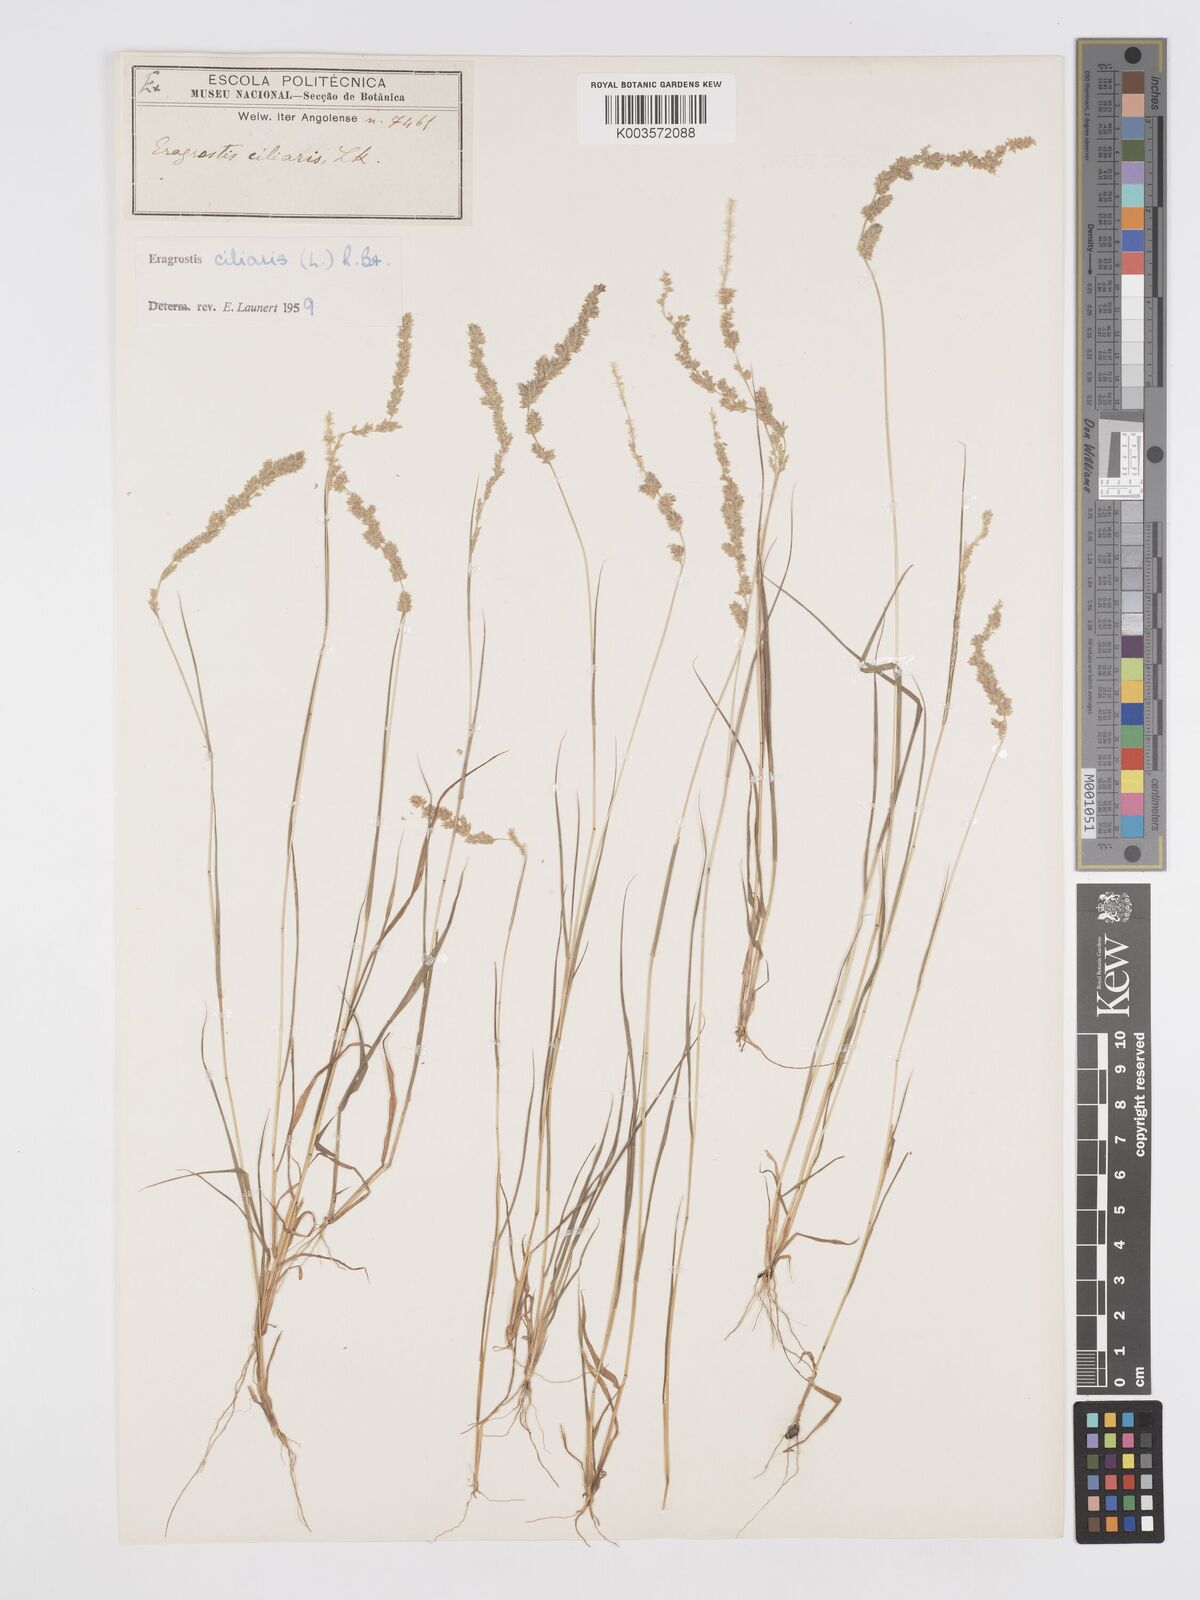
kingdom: Plantae
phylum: Tracheophyta
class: Liliopsida
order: Poales
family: Poaceae
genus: Eragrostis
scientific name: Eragrostis ciliaris
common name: Gophertail lovegrass
